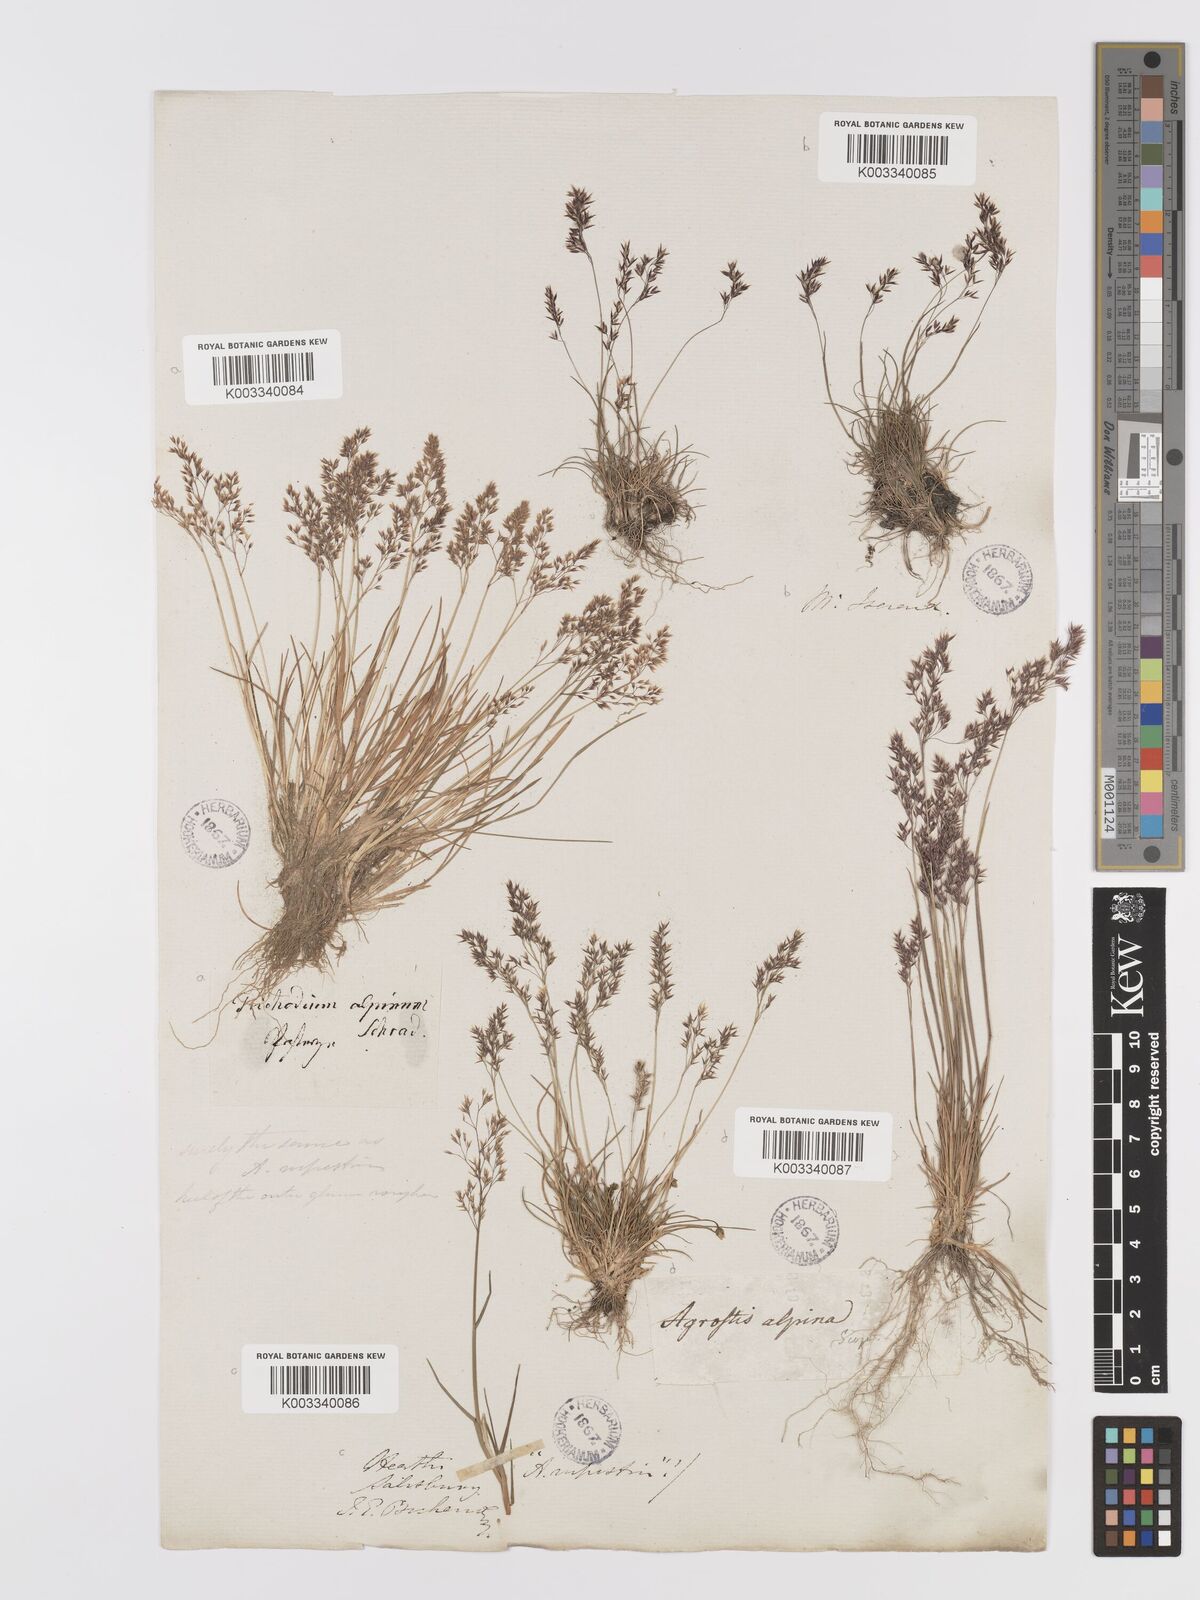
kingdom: Plantae
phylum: Tracheophyta
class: Liliopsida
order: Poales
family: Poaceae
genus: Agrostis
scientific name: Agrostis rupestris
